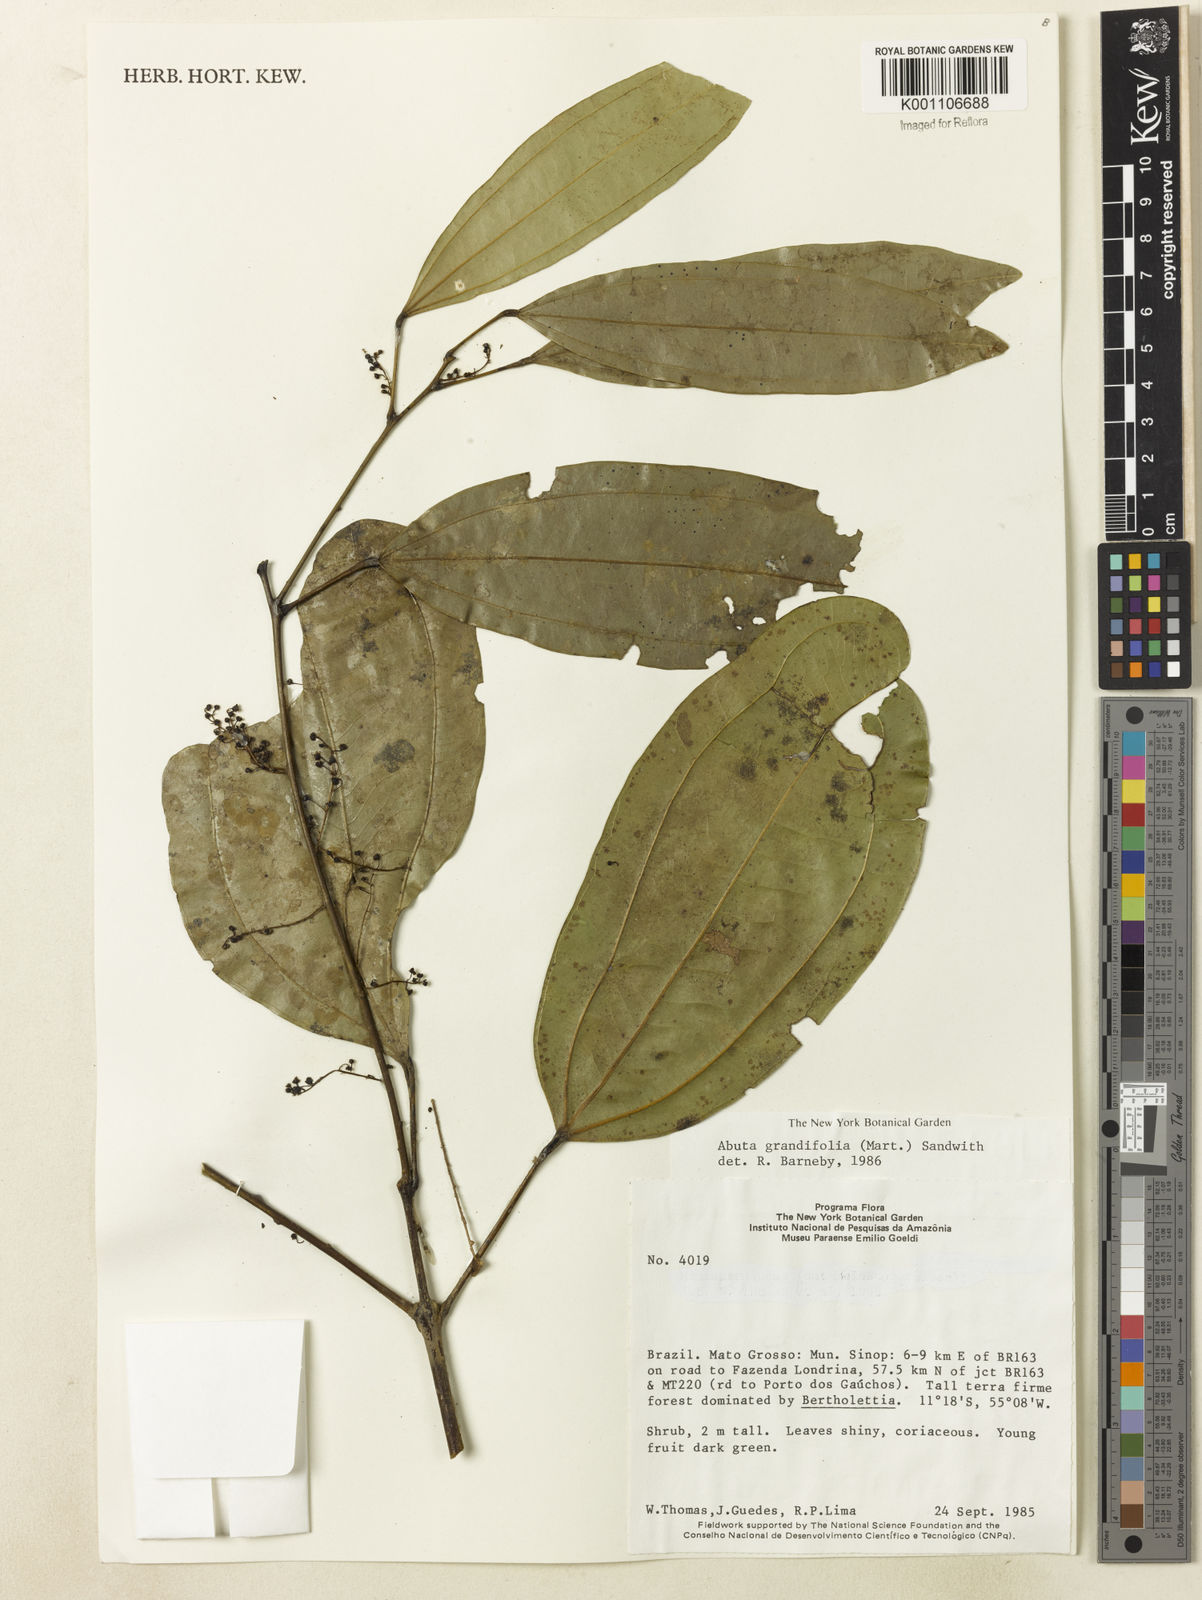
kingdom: Plantae
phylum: Tracheophyta
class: Magnoliopsida
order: Ranunculales
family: Menispermaceae
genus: Abuta
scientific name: Abuta grandifolia
